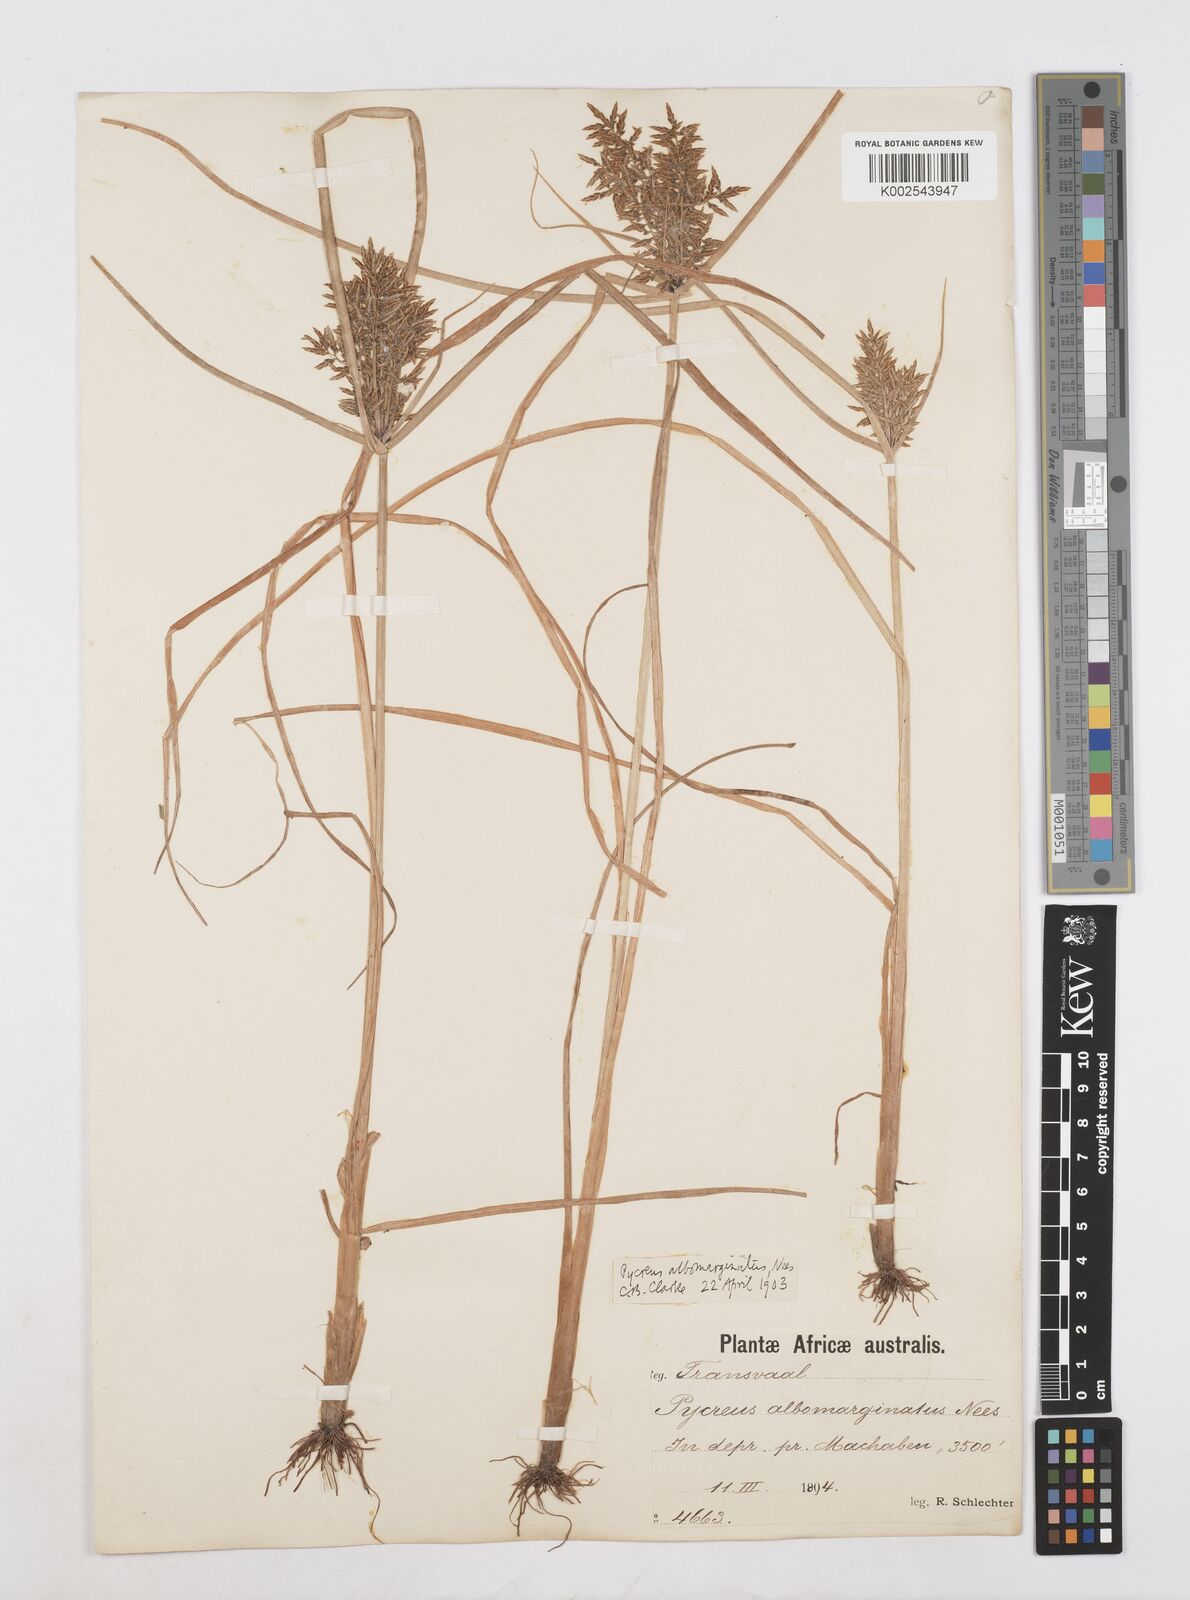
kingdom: Plantae
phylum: Tracheophyta
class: Liliopsida
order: Poales
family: Cyperaceae
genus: Cyperus
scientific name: Cyperus macrostachyos
